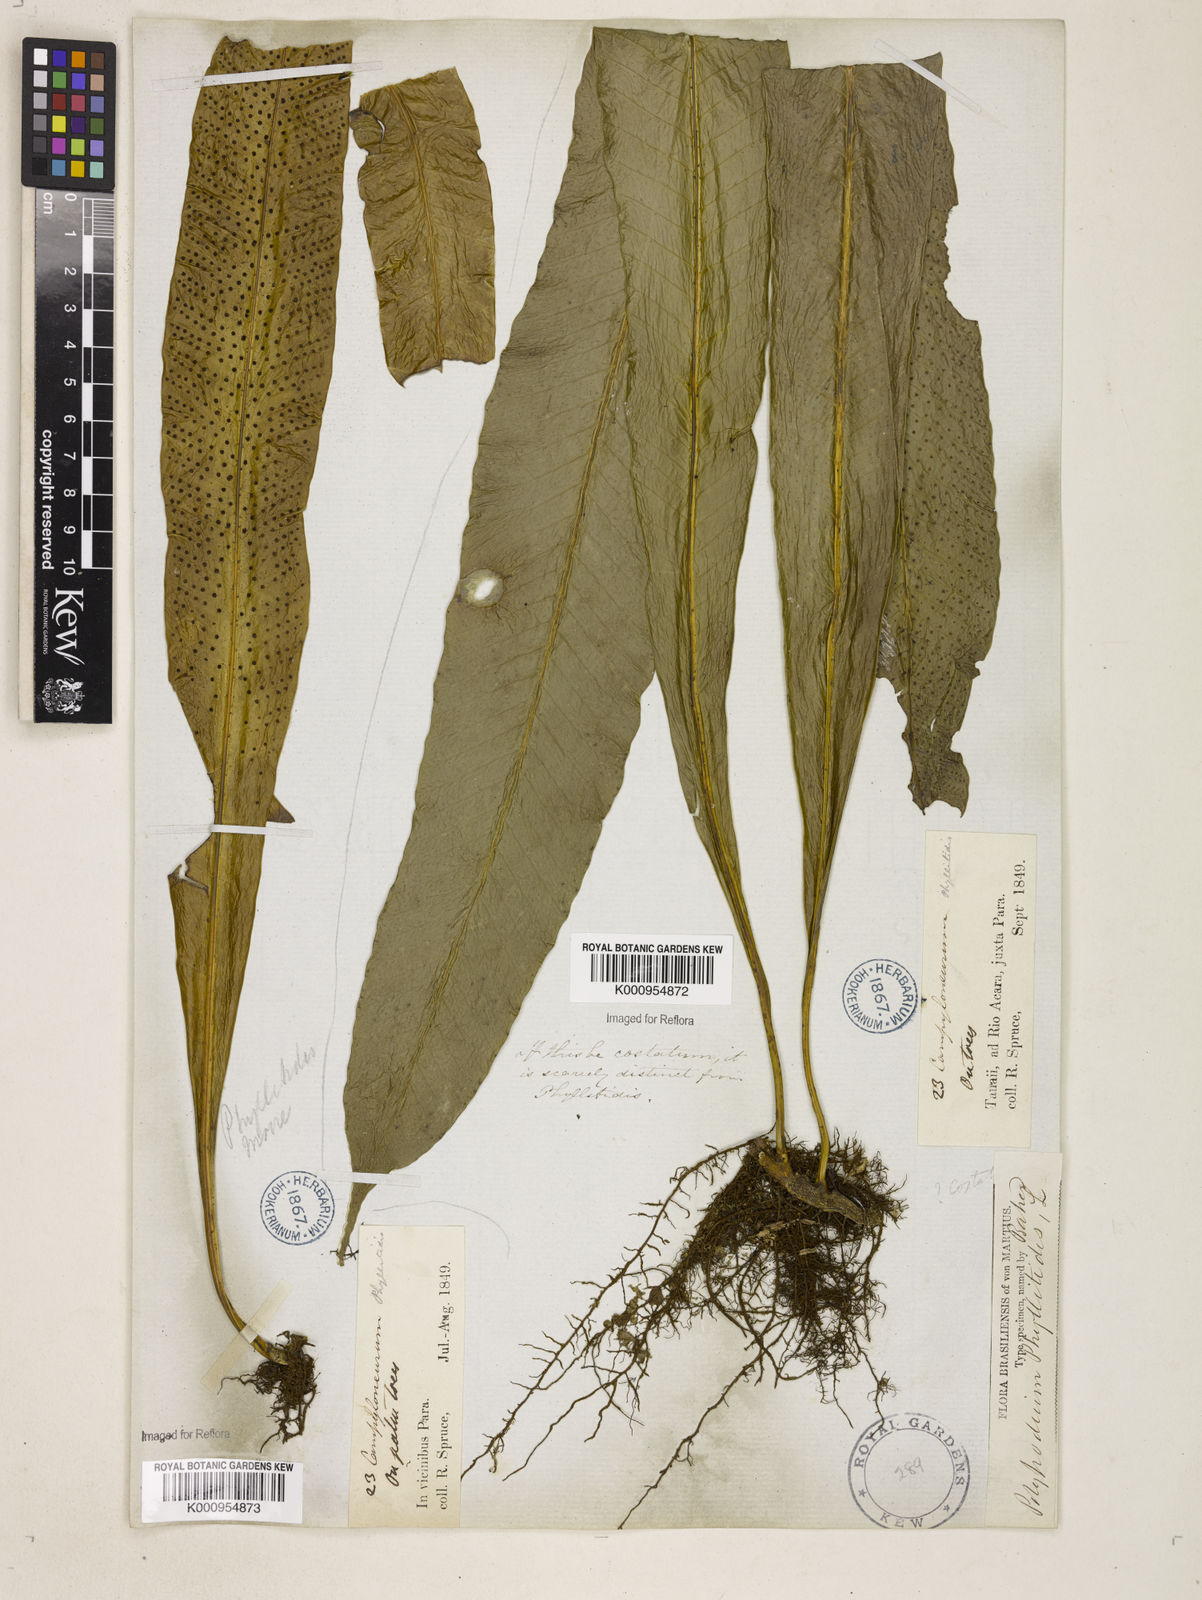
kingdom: Plantae
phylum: Tracheophyta
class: Polypodiopsida
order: Polypodiales
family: Polypodiaceae
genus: Campyloneurum
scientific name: Campyloneurum phyllitidis
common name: Cow-tongue fern
